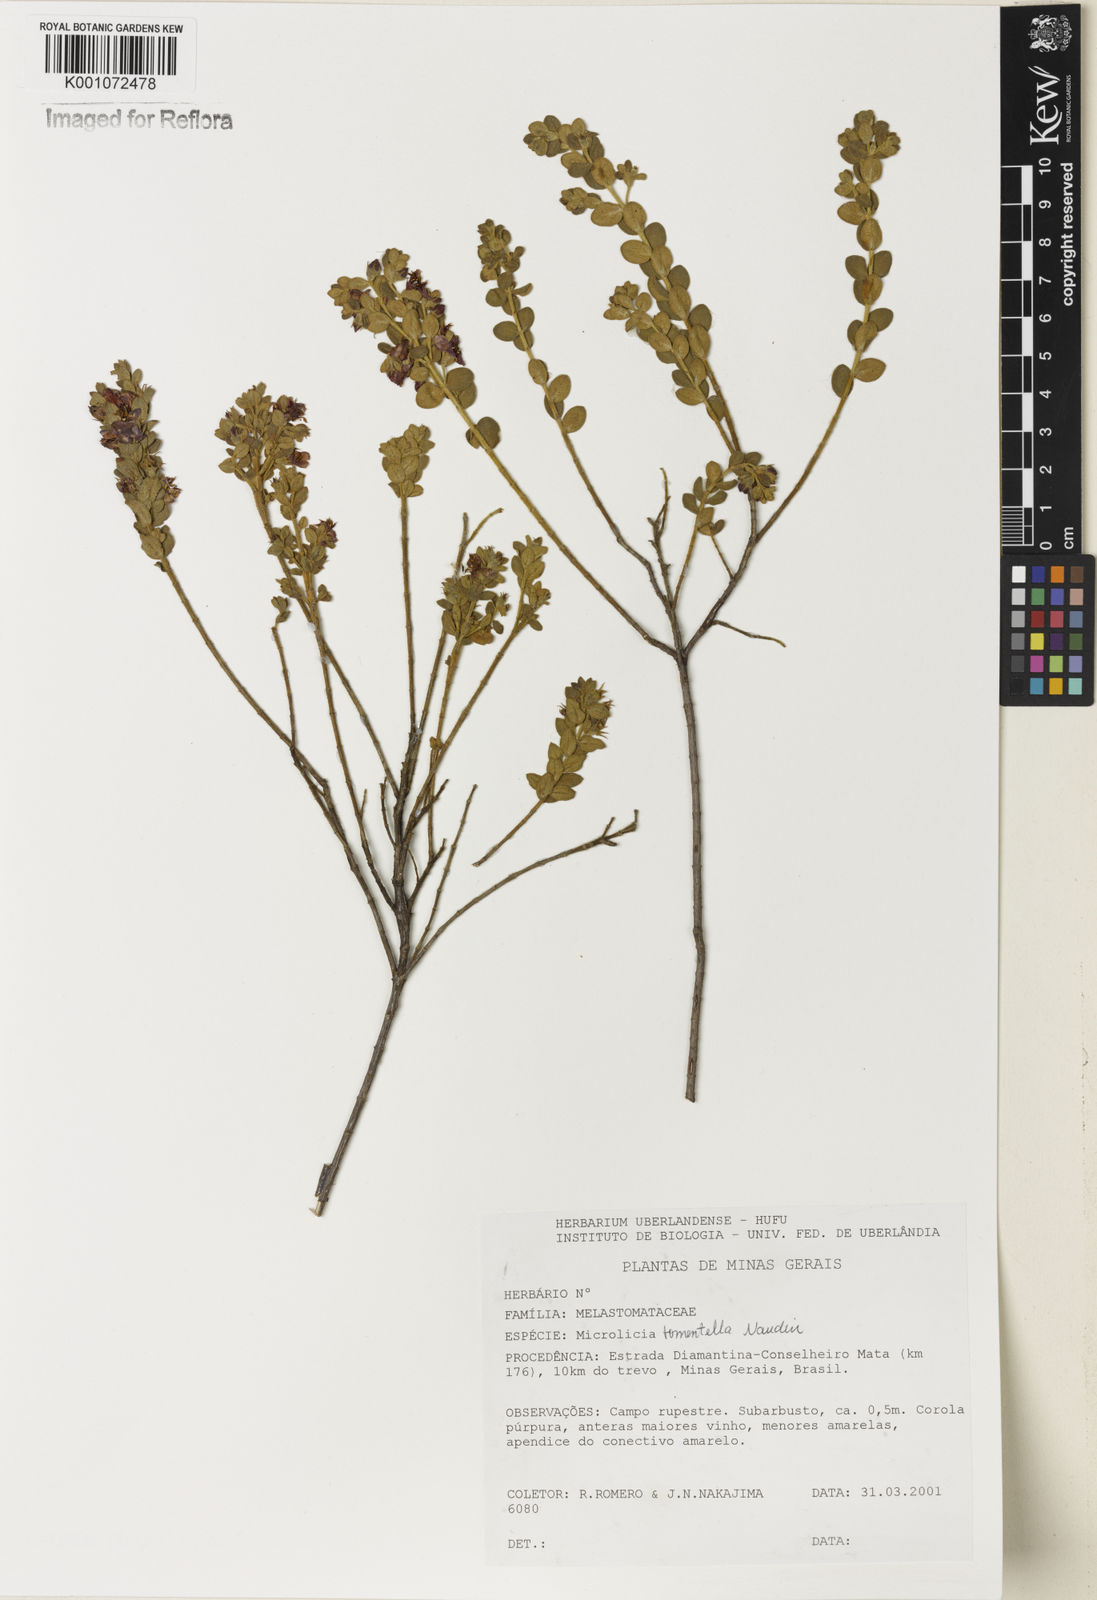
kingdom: Plantae
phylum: Tracheophyta
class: Magnoliopsida
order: Myrtales
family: Melastomataceae
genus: Microlicia
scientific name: Microlicia tomentella
